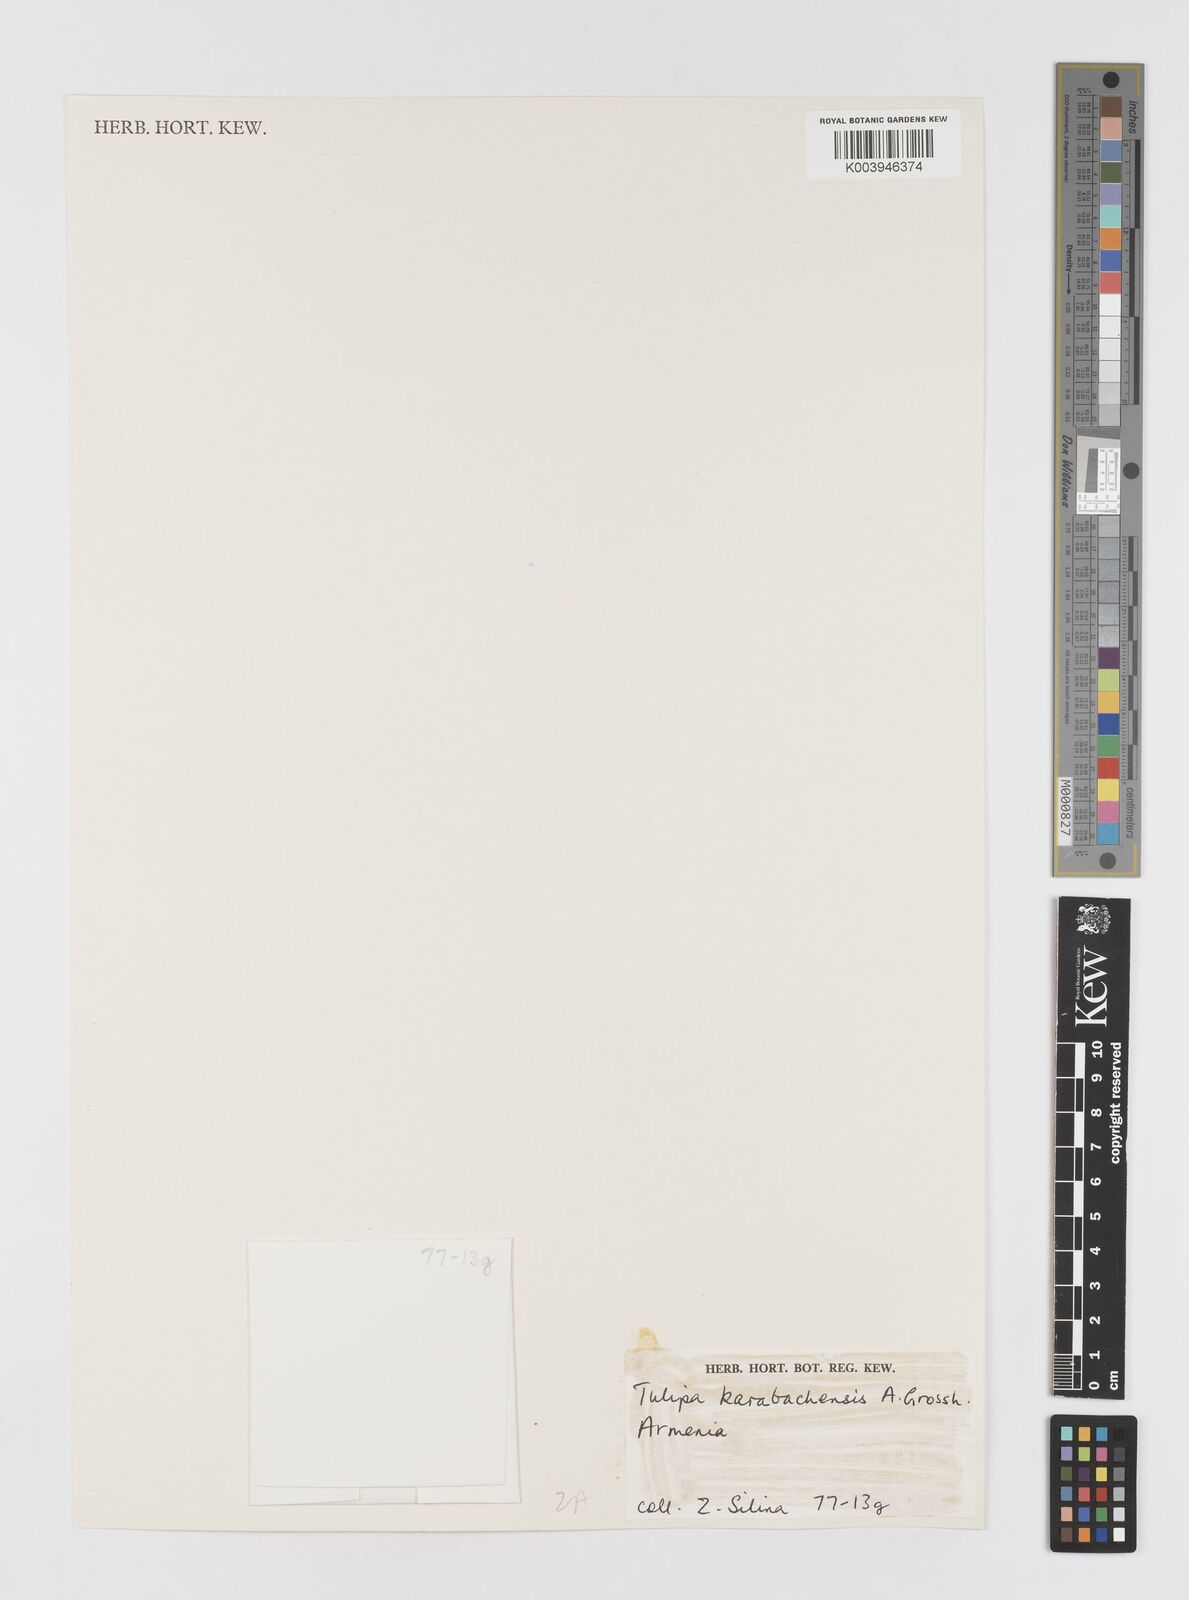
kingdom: Plantae
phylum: Tracheophyta
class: Liliopsida
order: Liliales
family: Liliaceae
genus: Tulipa
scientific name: Tulipa armena
